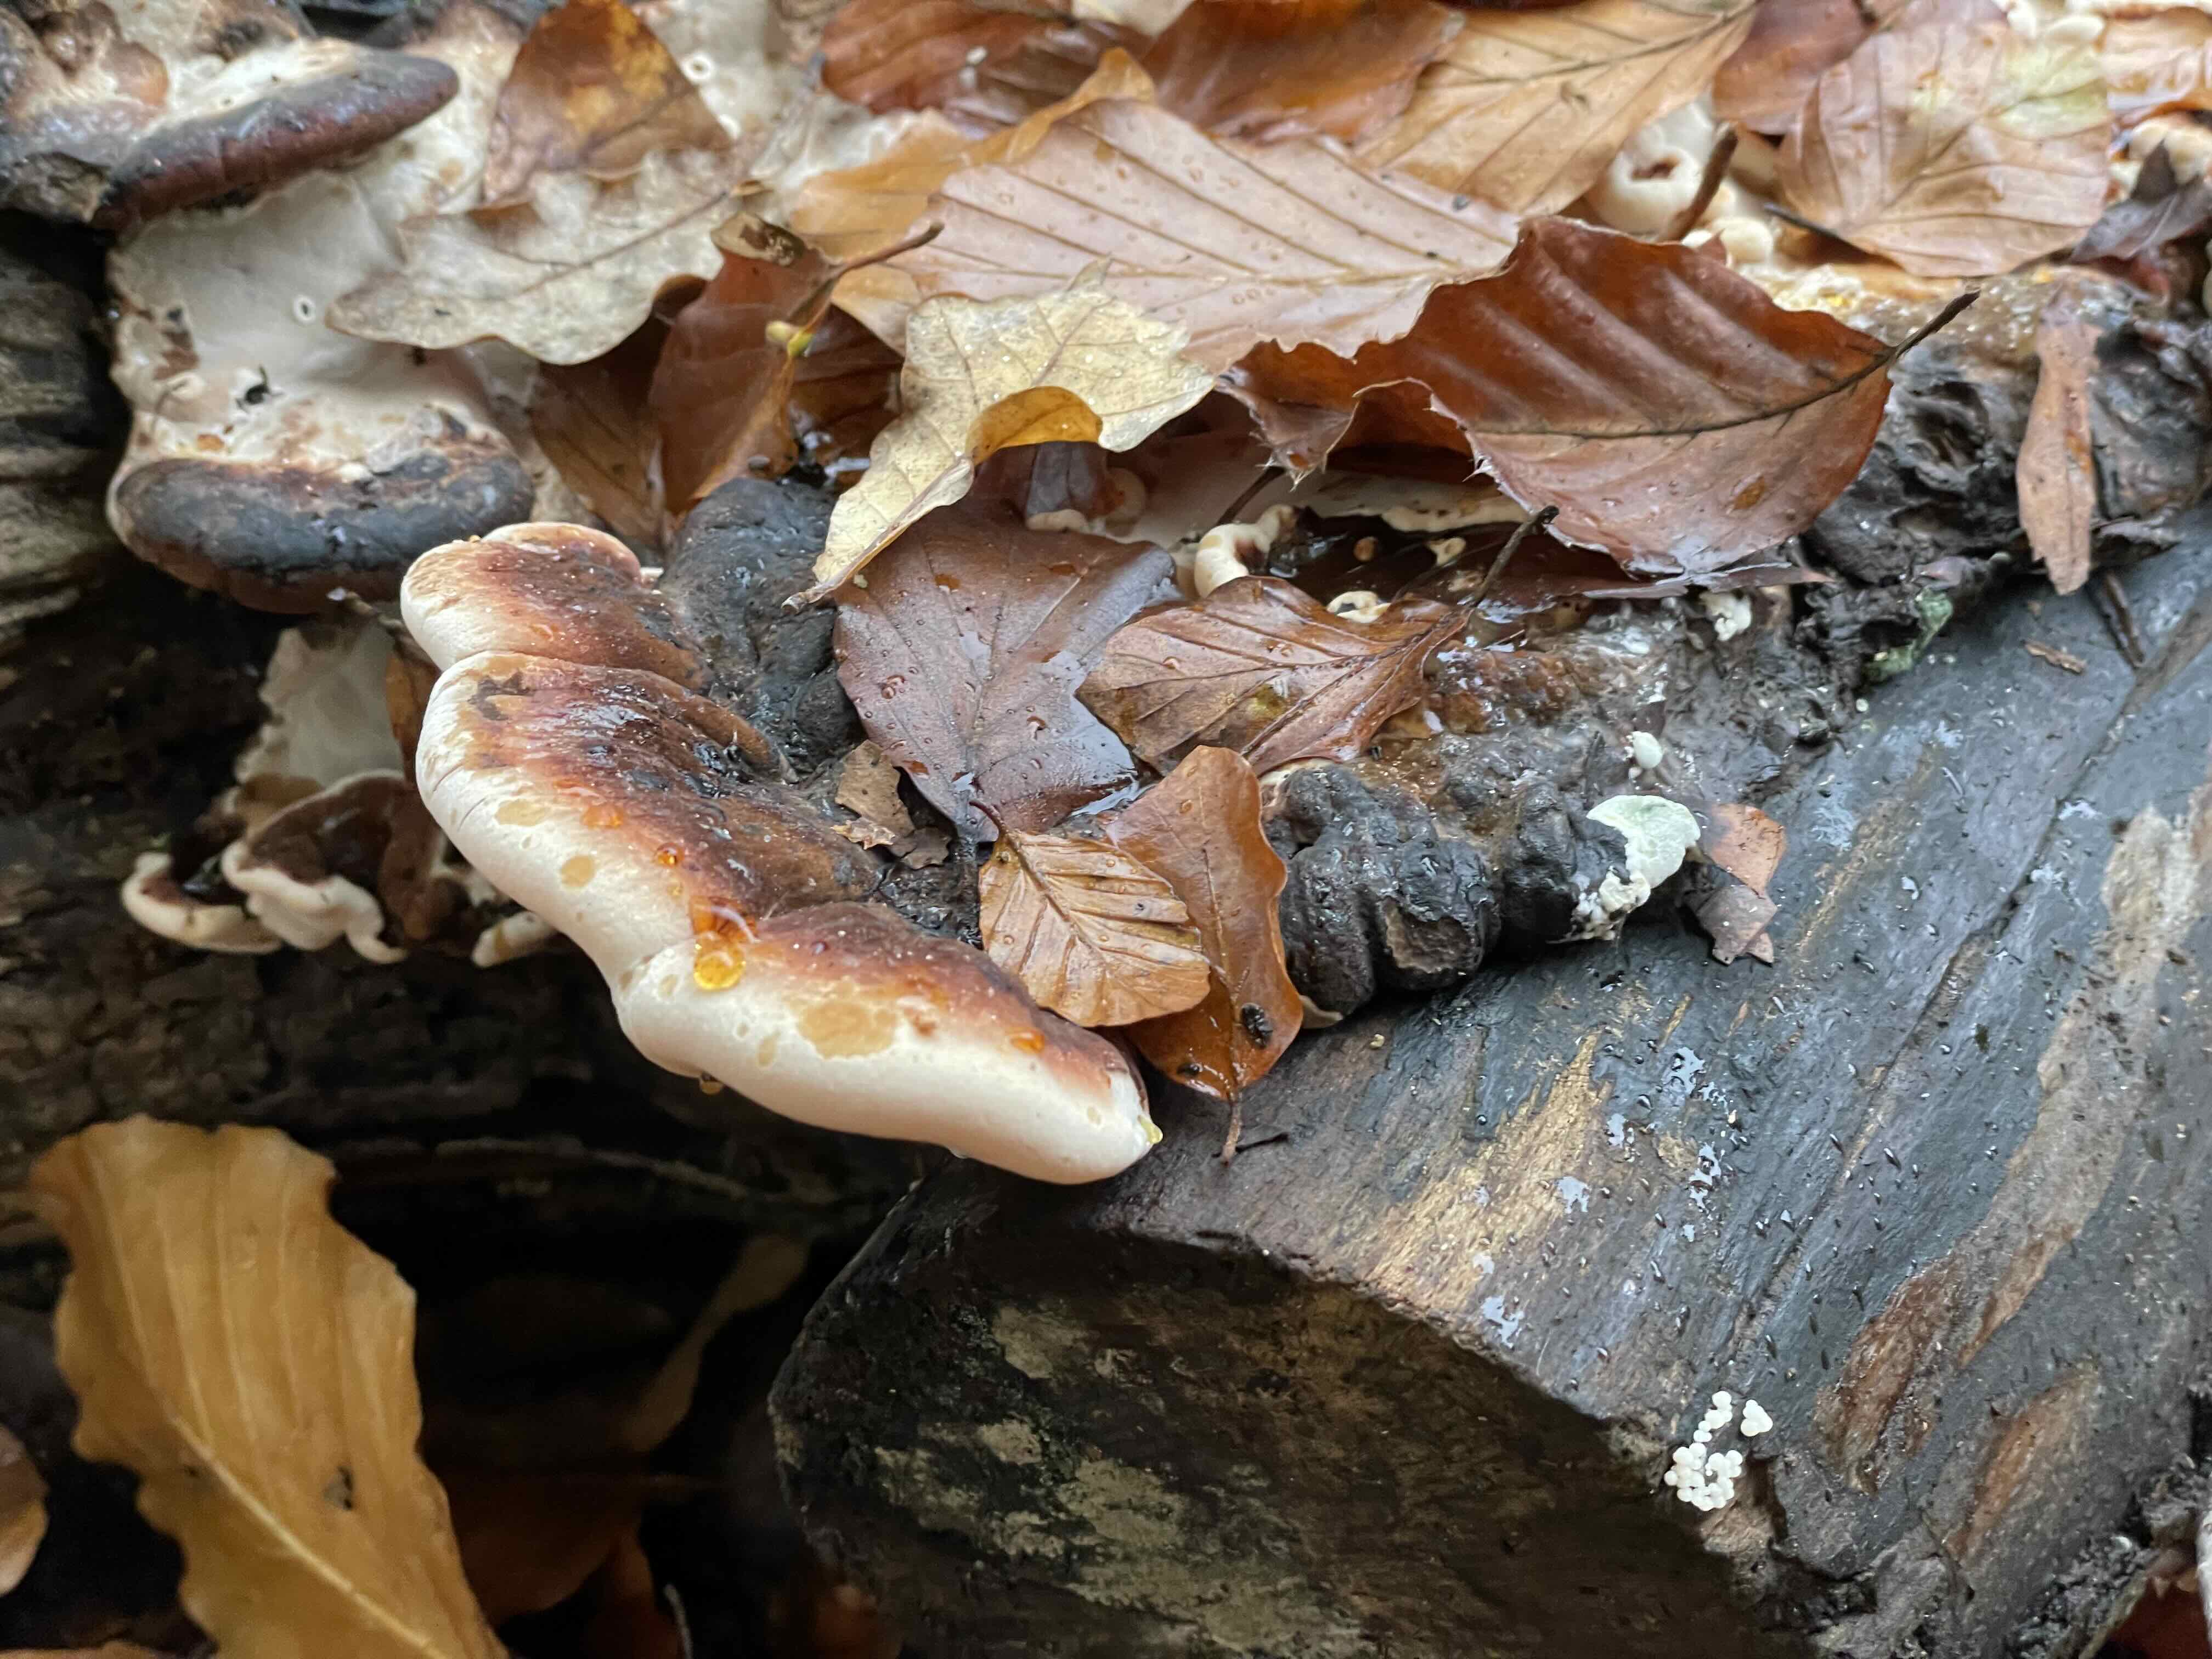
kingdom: Fungi
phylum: Basidiomycota
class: Agaricomycetes
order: Polyporales
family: Ischnodermataceae
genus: Ischnoderma
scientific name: Ischnoderma resinosum
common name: løv-tjæreporesvamp
